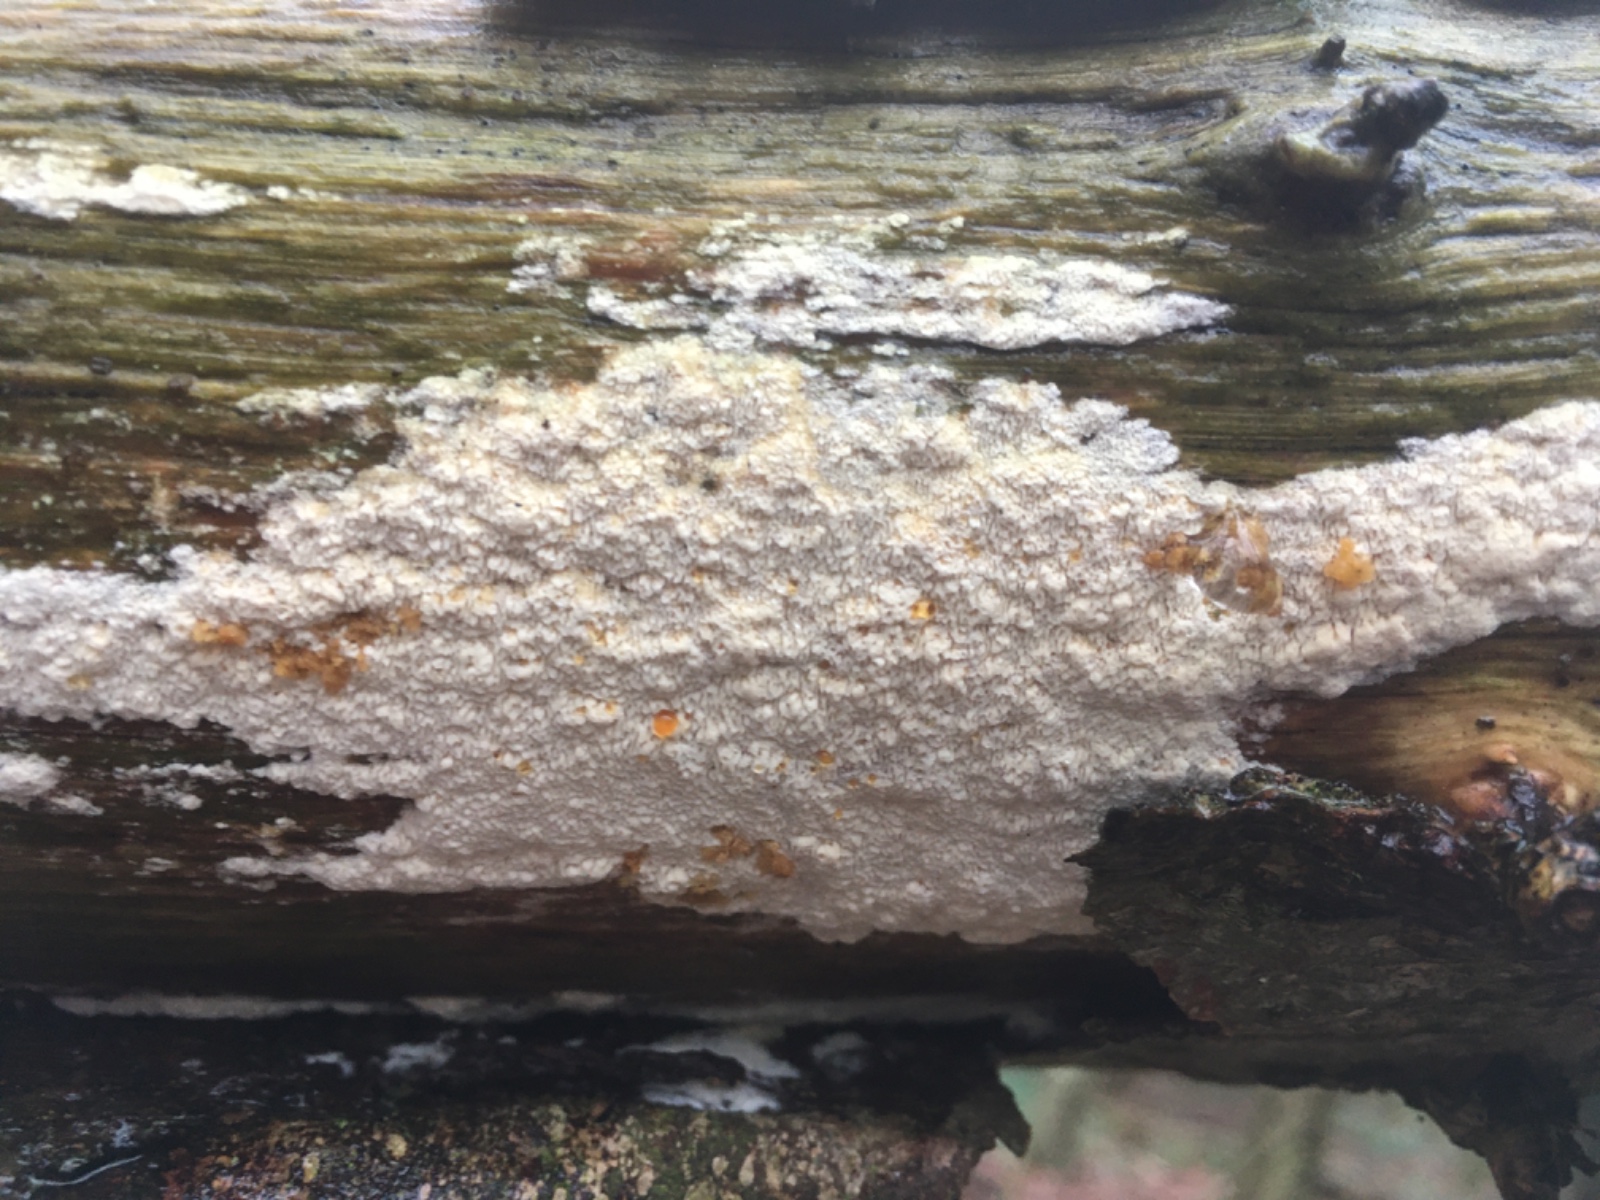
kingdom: Fungi
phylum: Basidiomycota
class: Agaricomycetes
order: Hymenochaetales
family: Schizoporaceae
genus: Xylodon
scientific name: Xylodon
